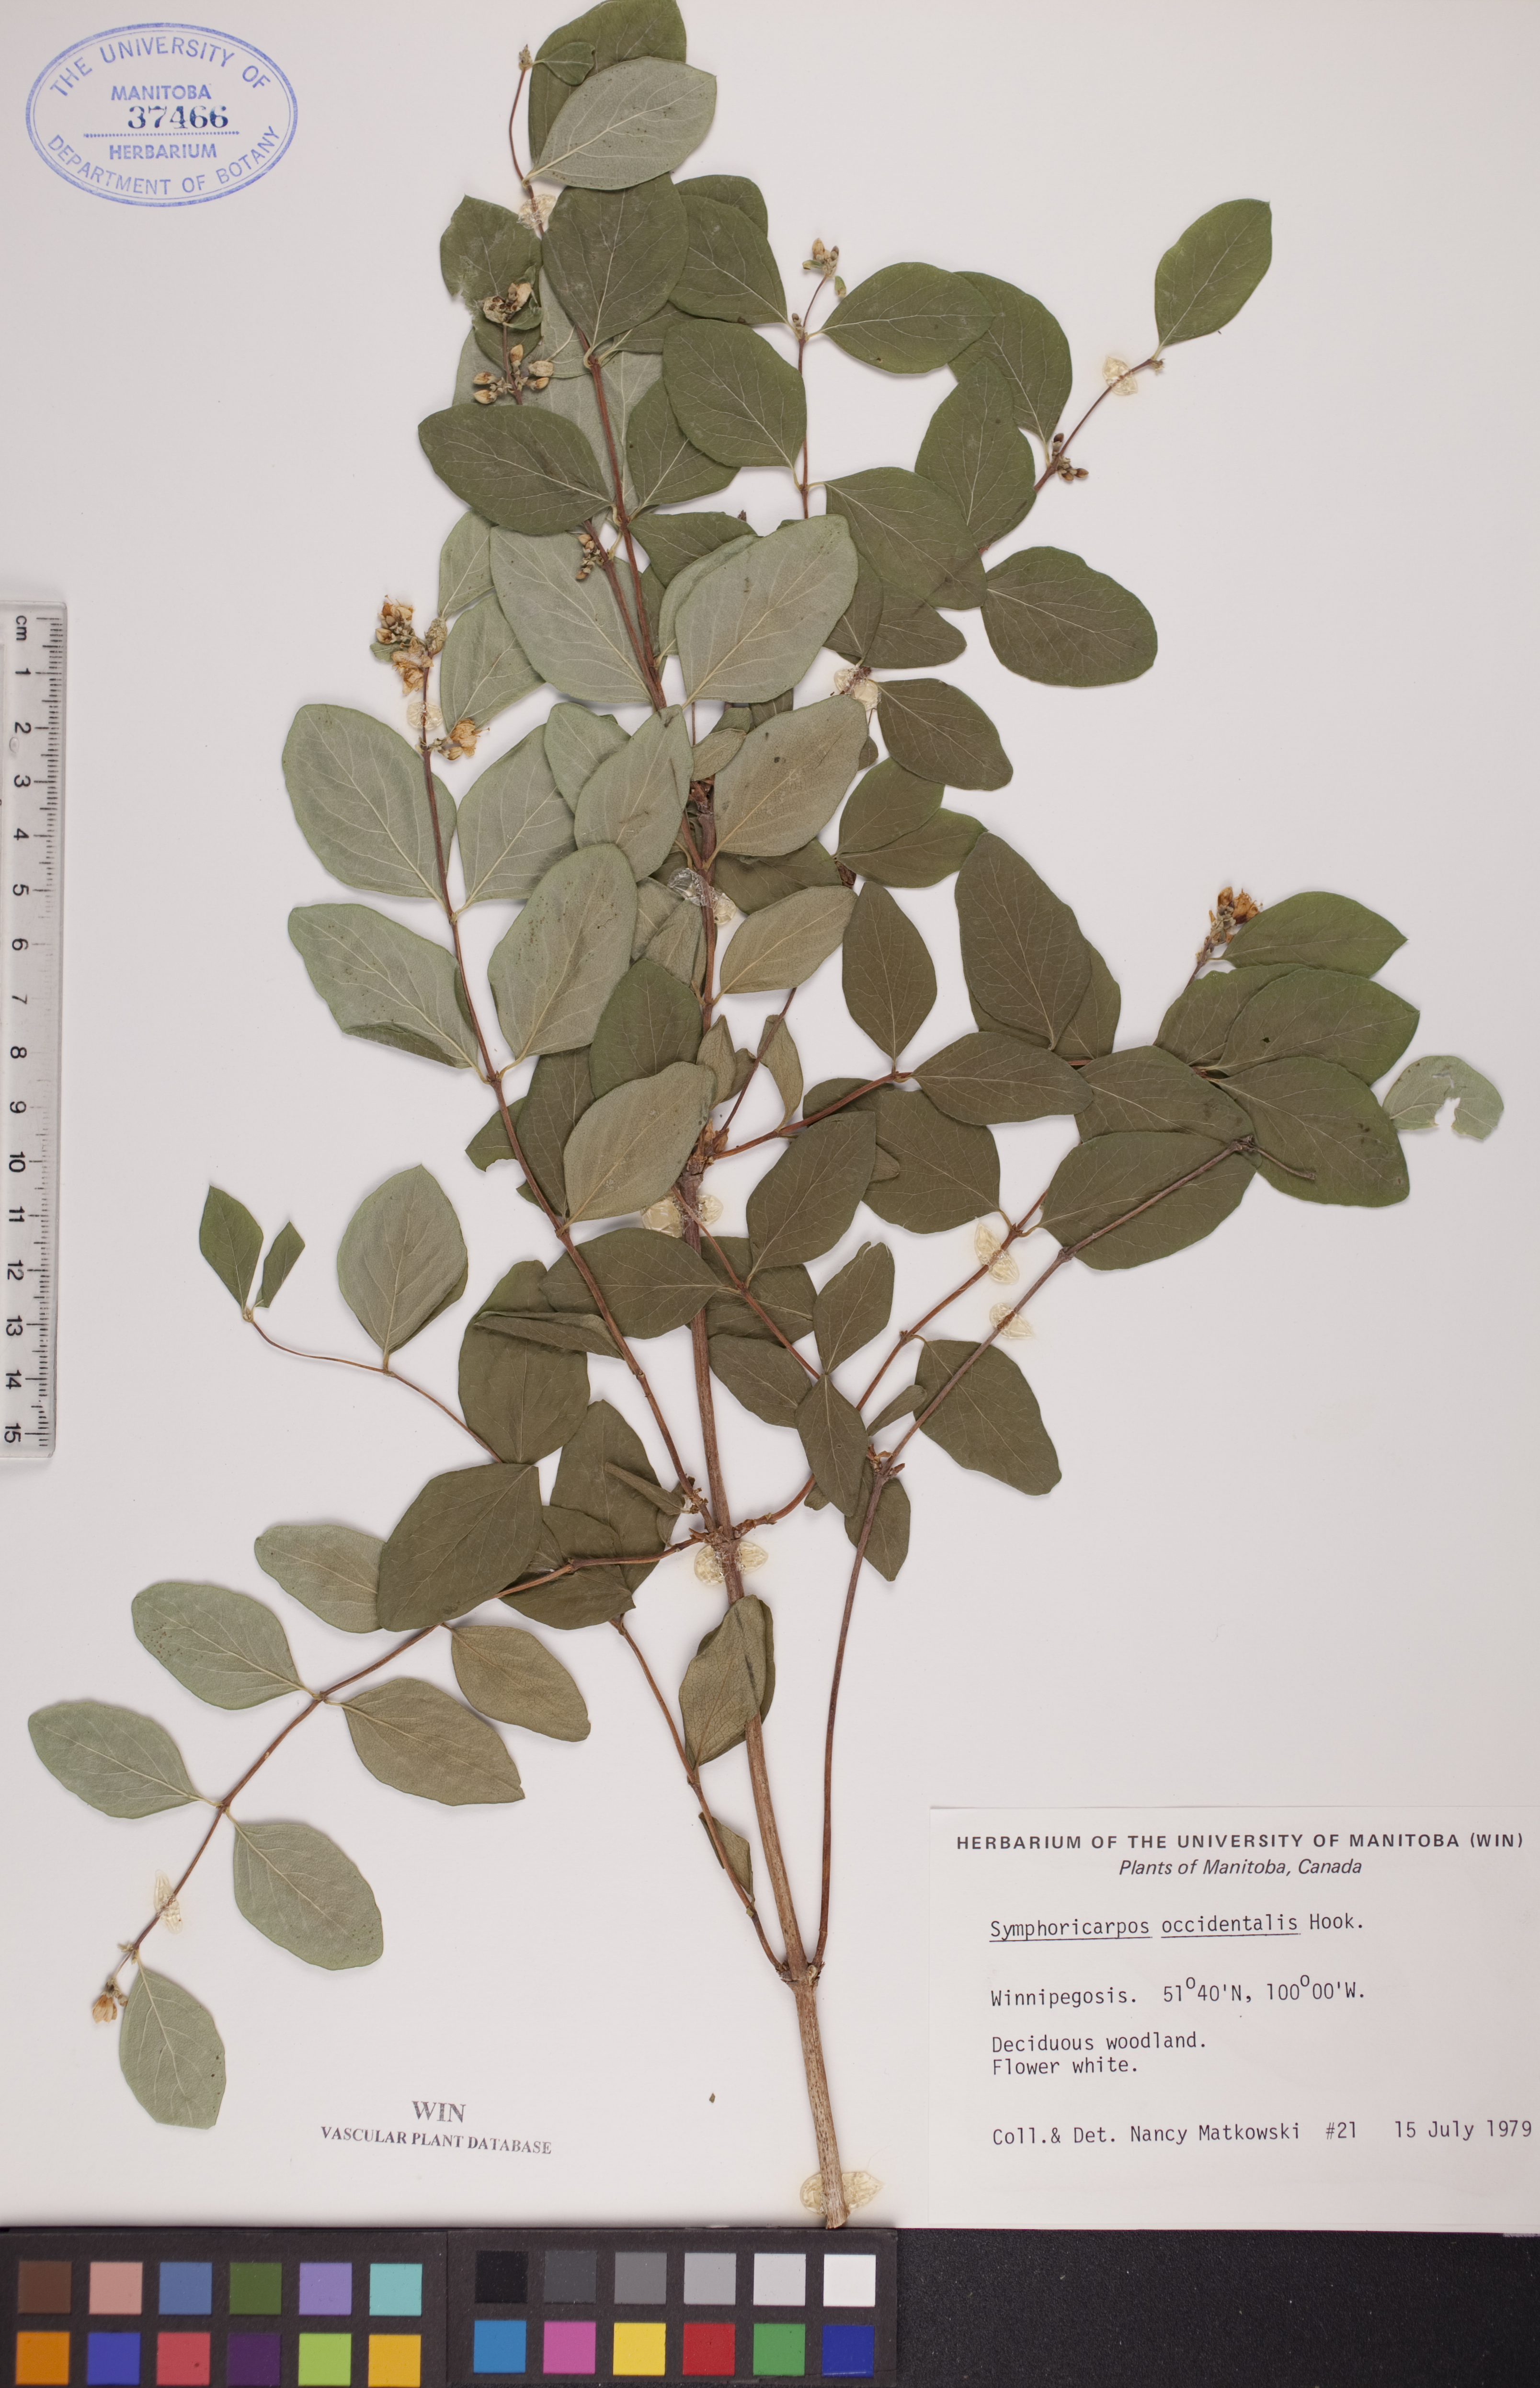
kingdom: Plantae
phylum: Tracheophyta
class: Magnoliopsida
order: Dipsacales
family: Caprifoliaceae
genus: Symphoricarpos
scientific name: Symphoricarpos occidentalis
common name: Wolfberry
